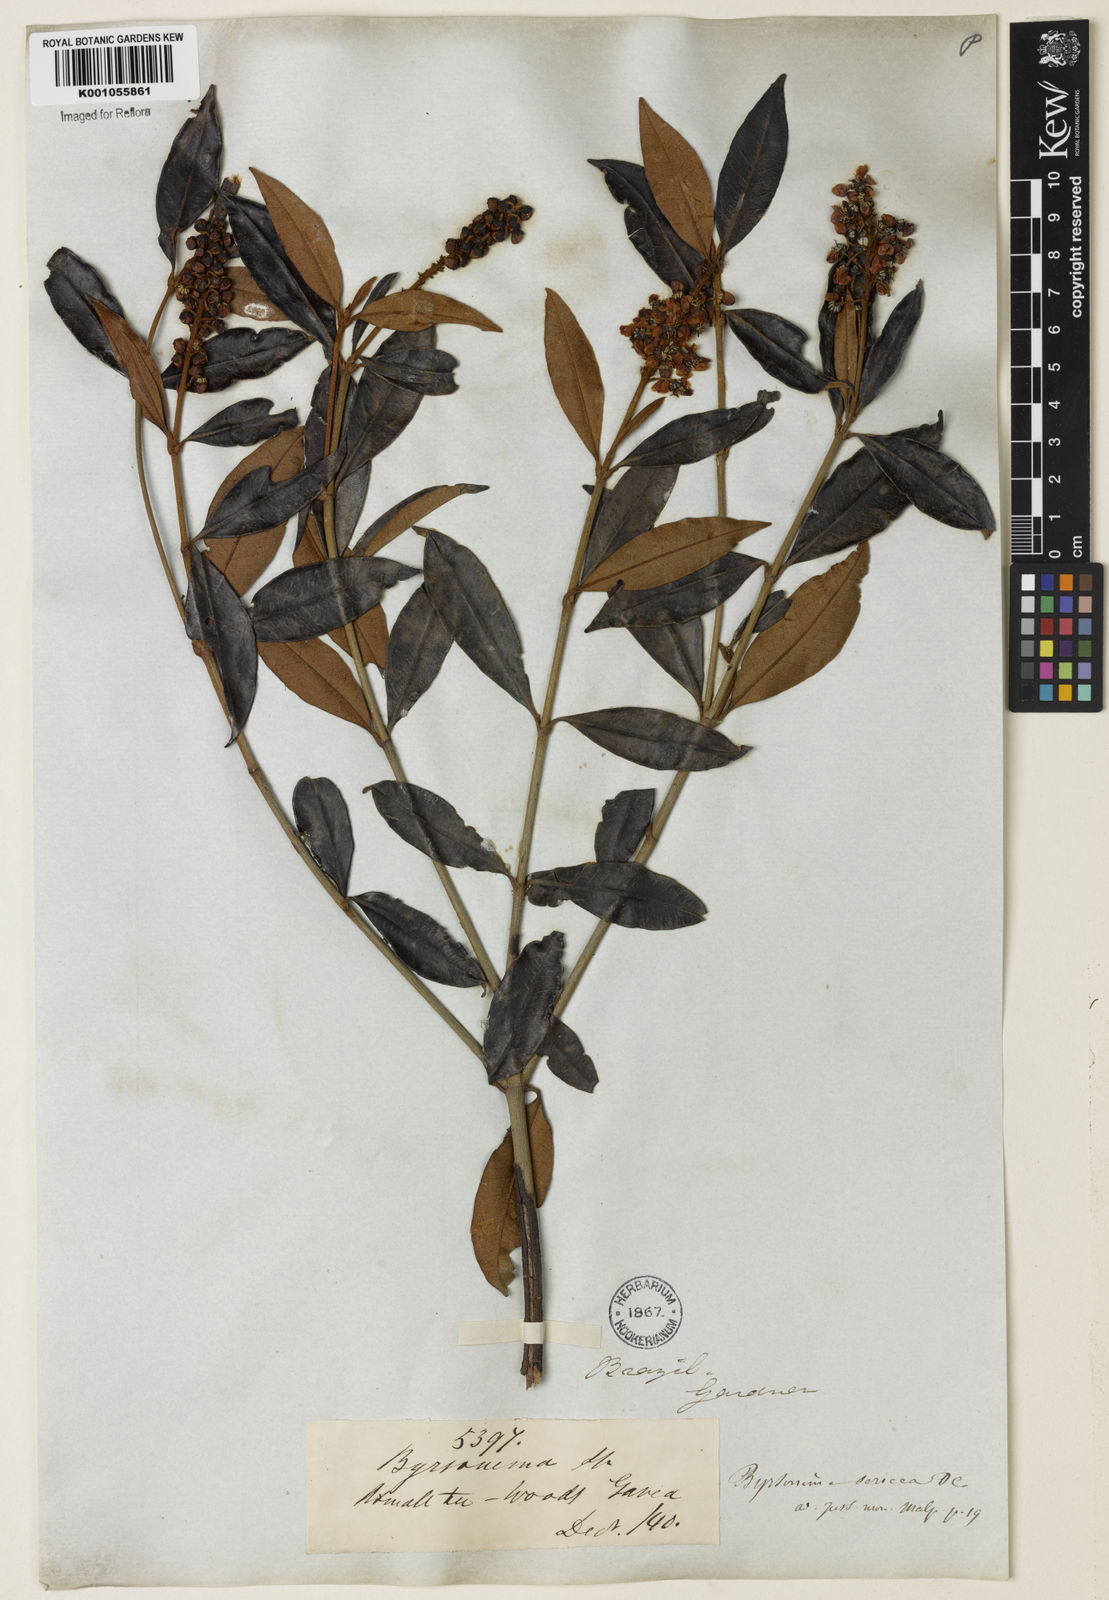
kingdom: Plantae
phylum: Tracheophyta
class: Magnoliopsida
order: Malpighiales
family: Malpighiaceae
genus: Byrsonima
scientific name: Byrsonima sericea
